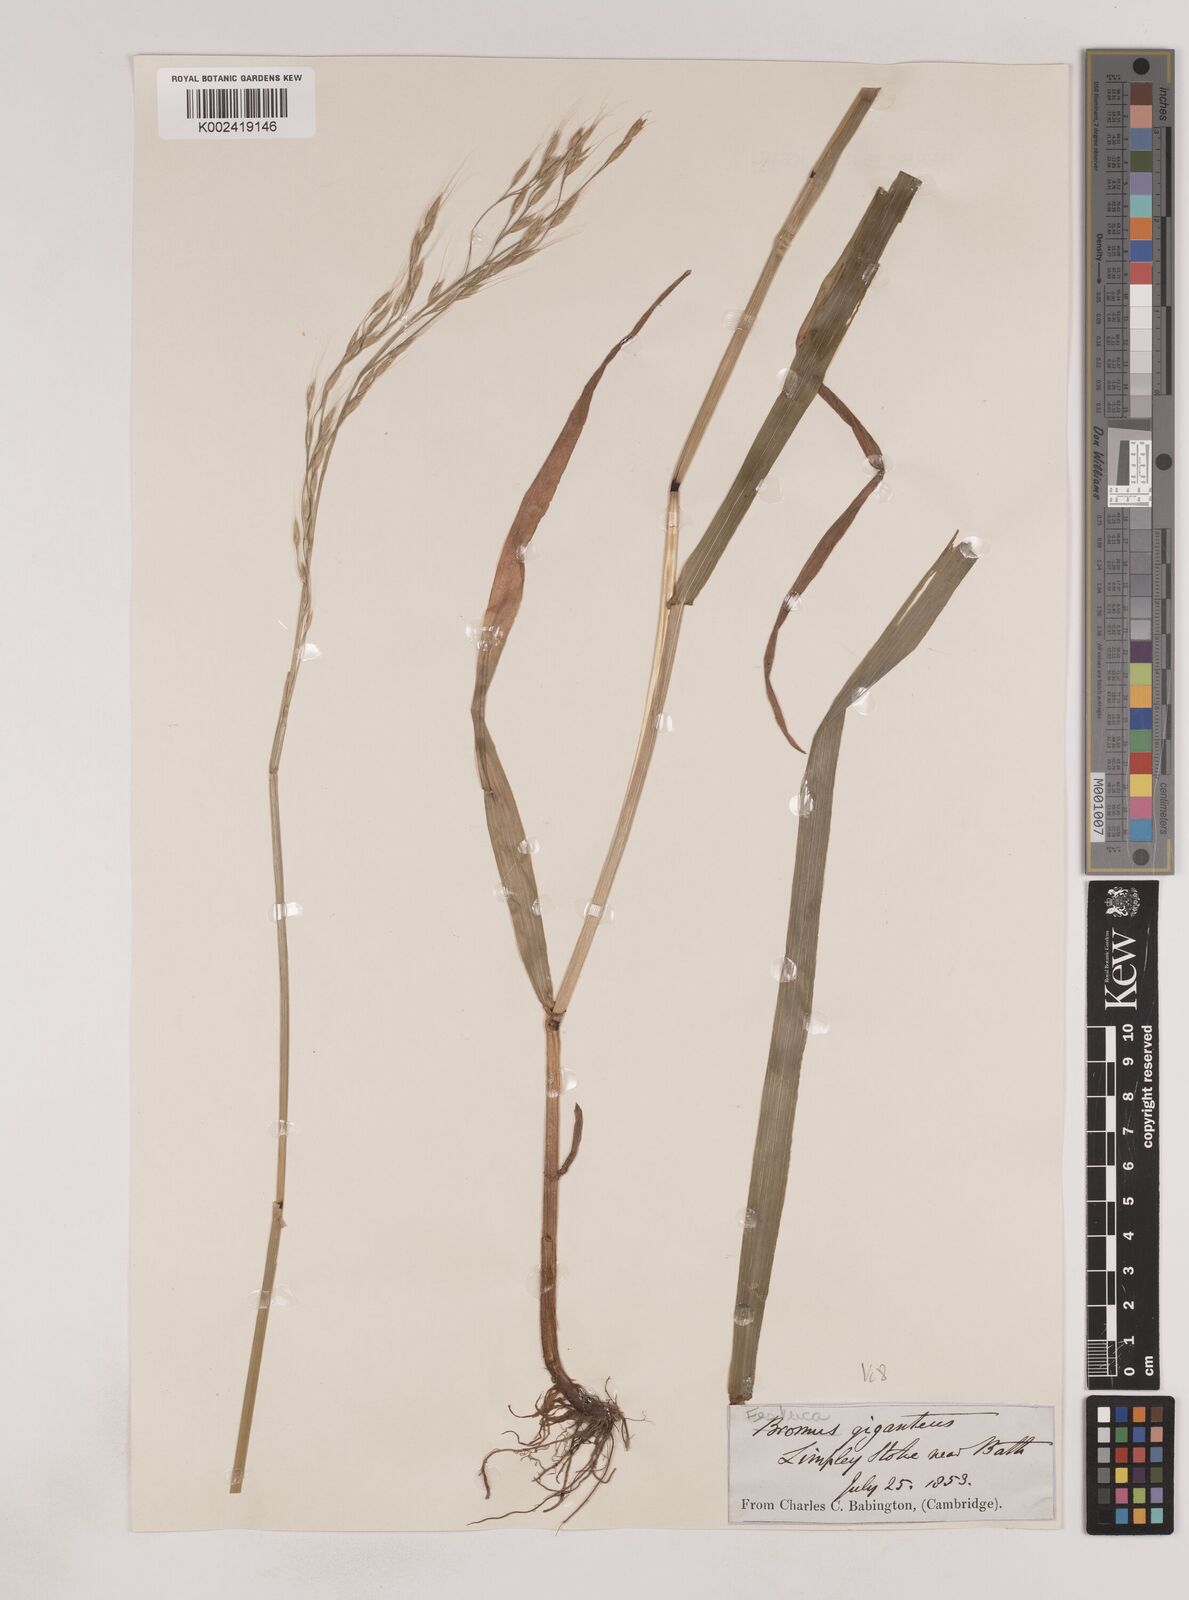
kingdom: Plantae
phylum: Tracheophyta
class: Liliopsida
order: Poales
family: Poaceae
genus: Lolium
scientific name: Lolium giganteum
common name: Giant fescue
